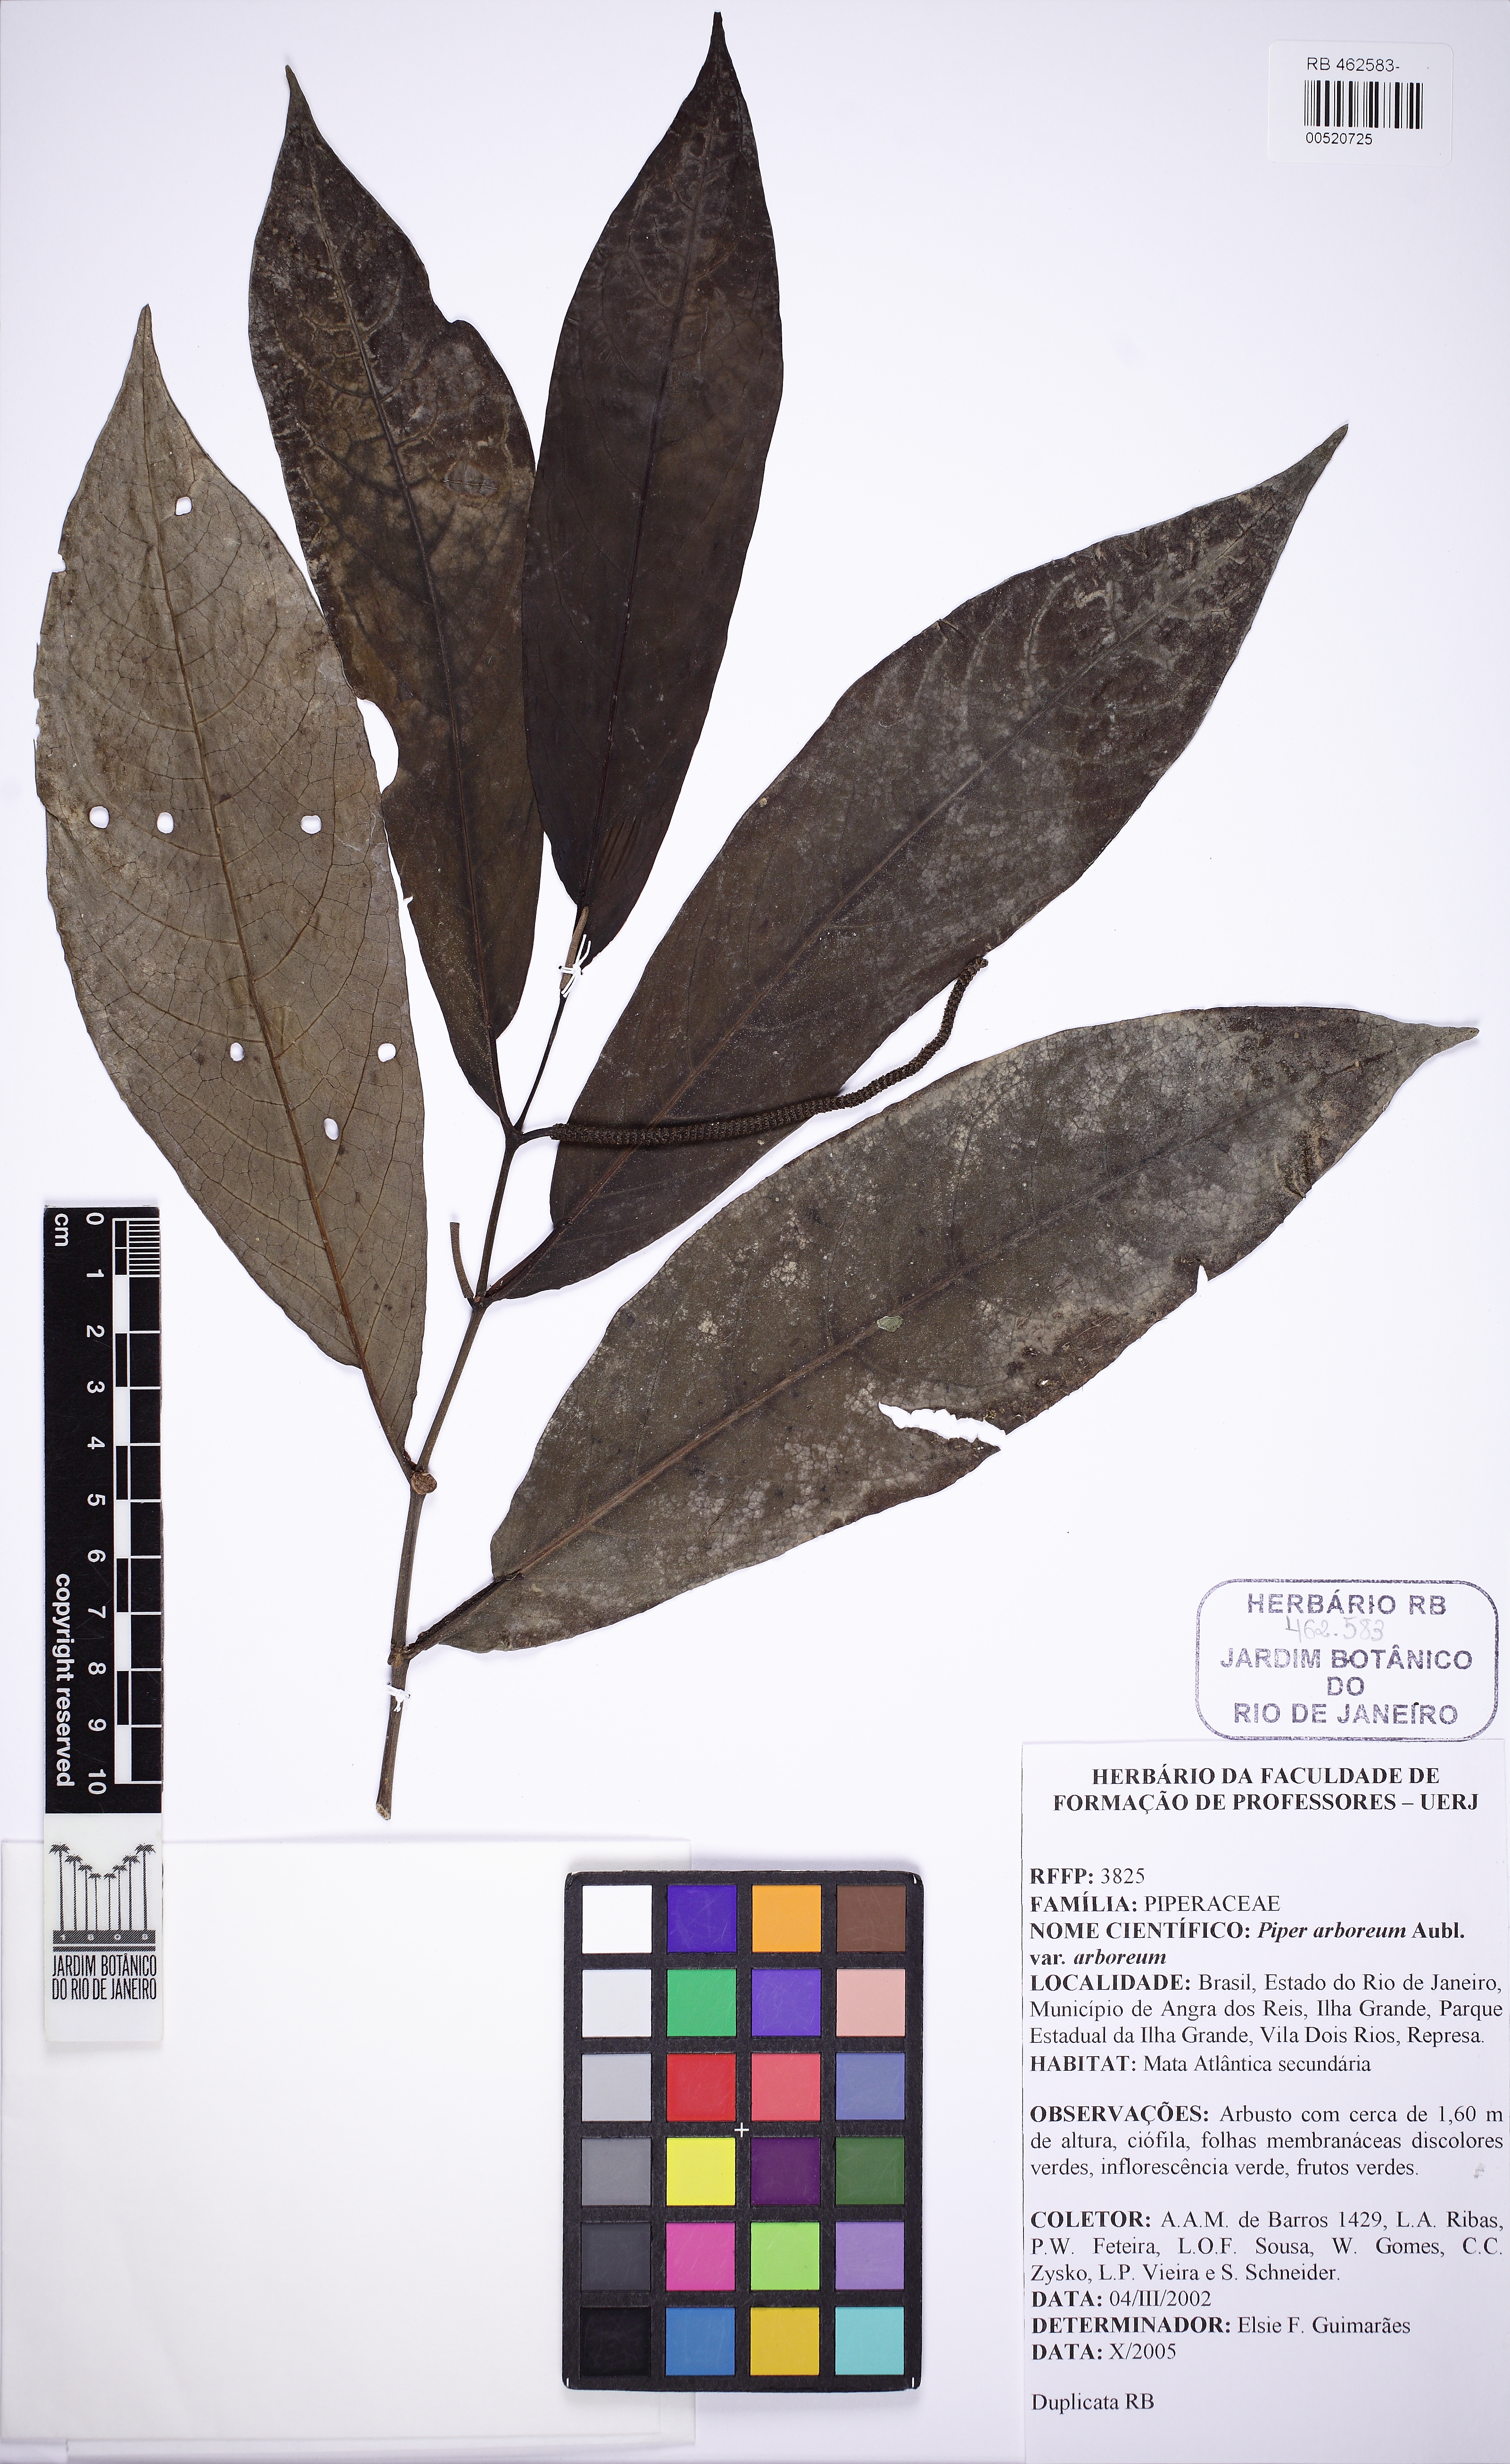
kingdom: Plantae
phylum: Tracheophyta
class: Magnoliopsida
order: Piperales
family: Piperaceae
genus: Piper
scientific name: Piper arboreum
